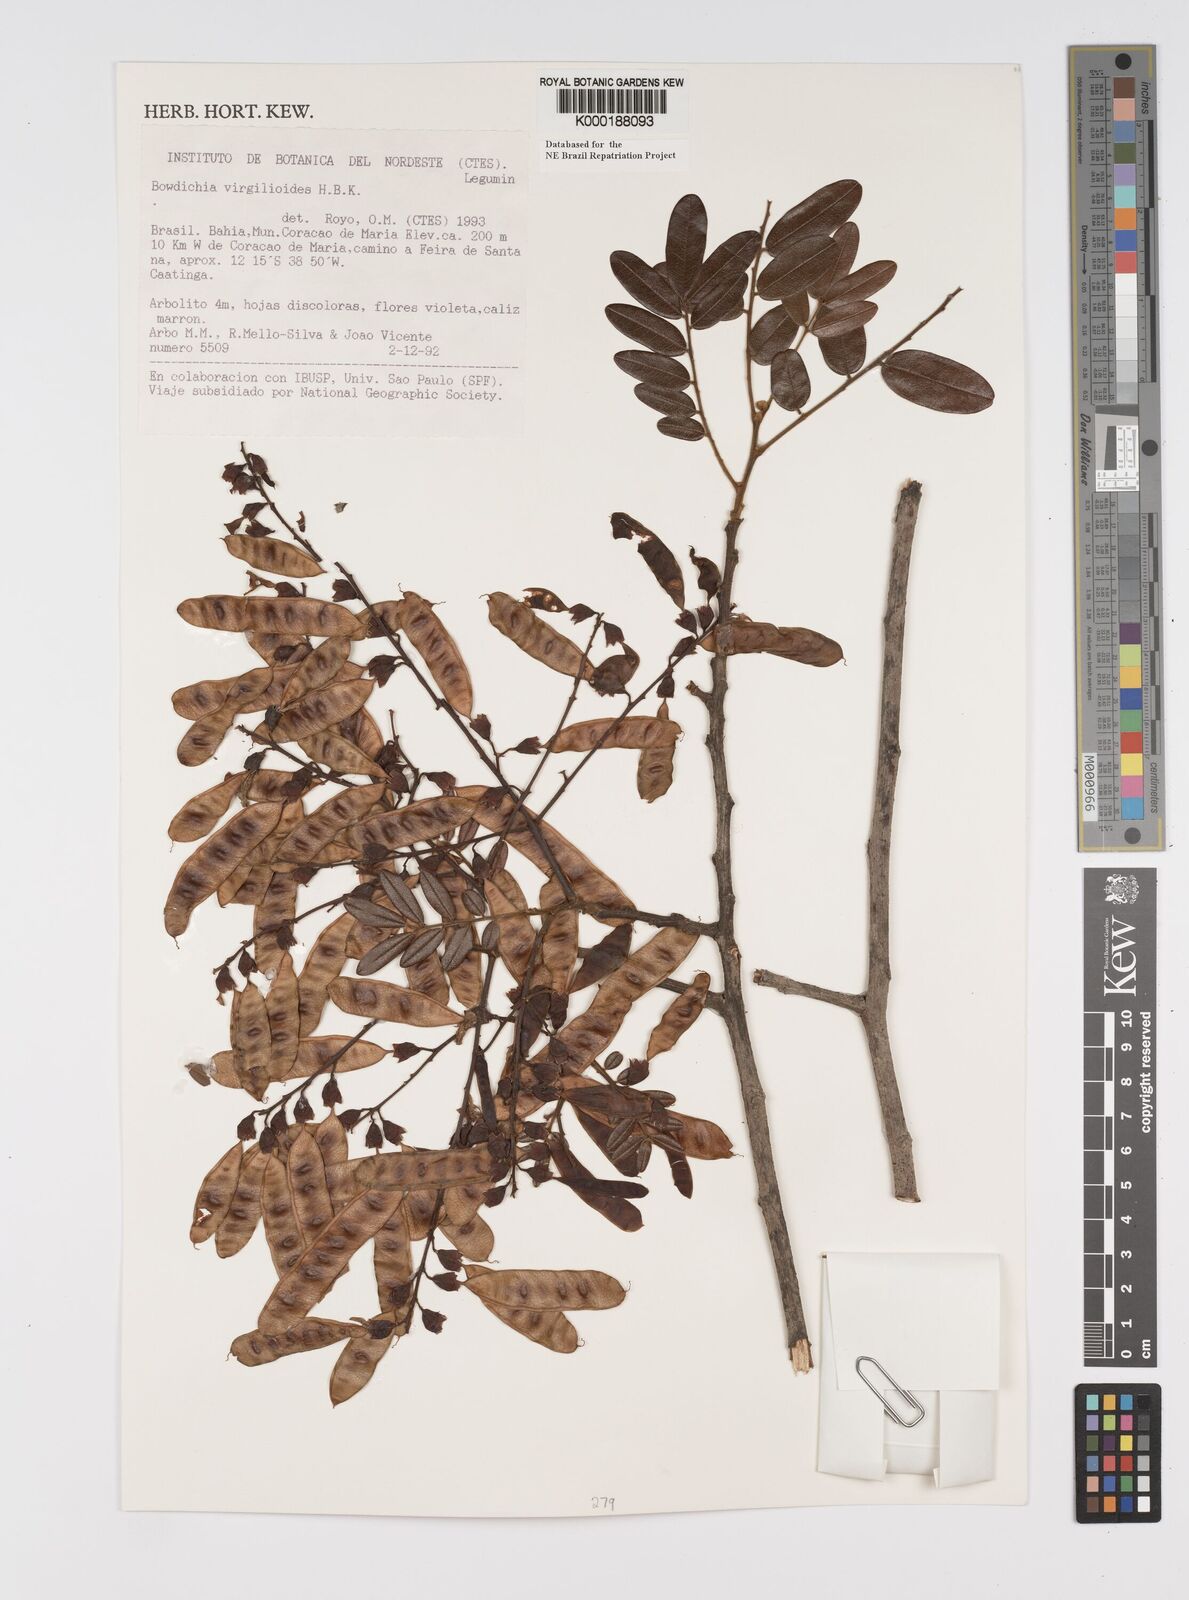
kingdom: Plantae
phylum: Tracheophyta
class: Magnoliopsida
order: Fabales
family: Fabaceae
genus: Bowdichia
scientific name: Bowdichia virgilioides
